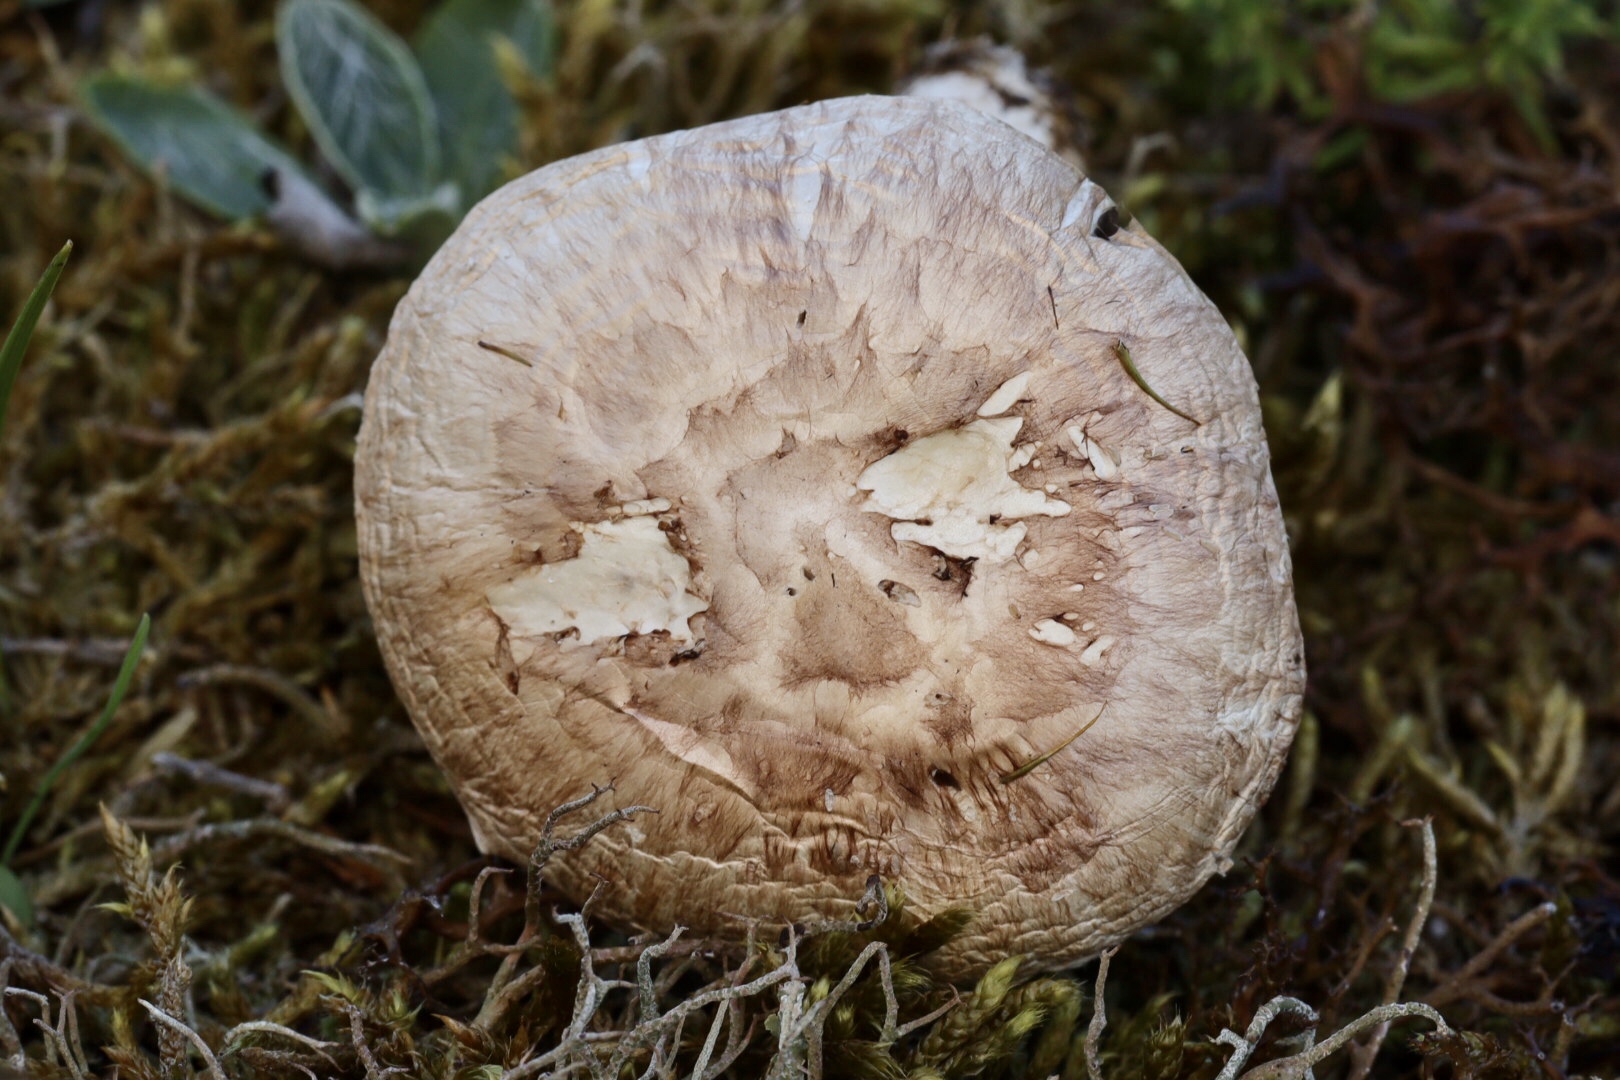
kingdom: Fungi
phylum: Basidiomycota
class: Agaricomycetes
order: Agaricales
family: Agaricaceae
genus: Agaricus
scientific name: Agaricus
